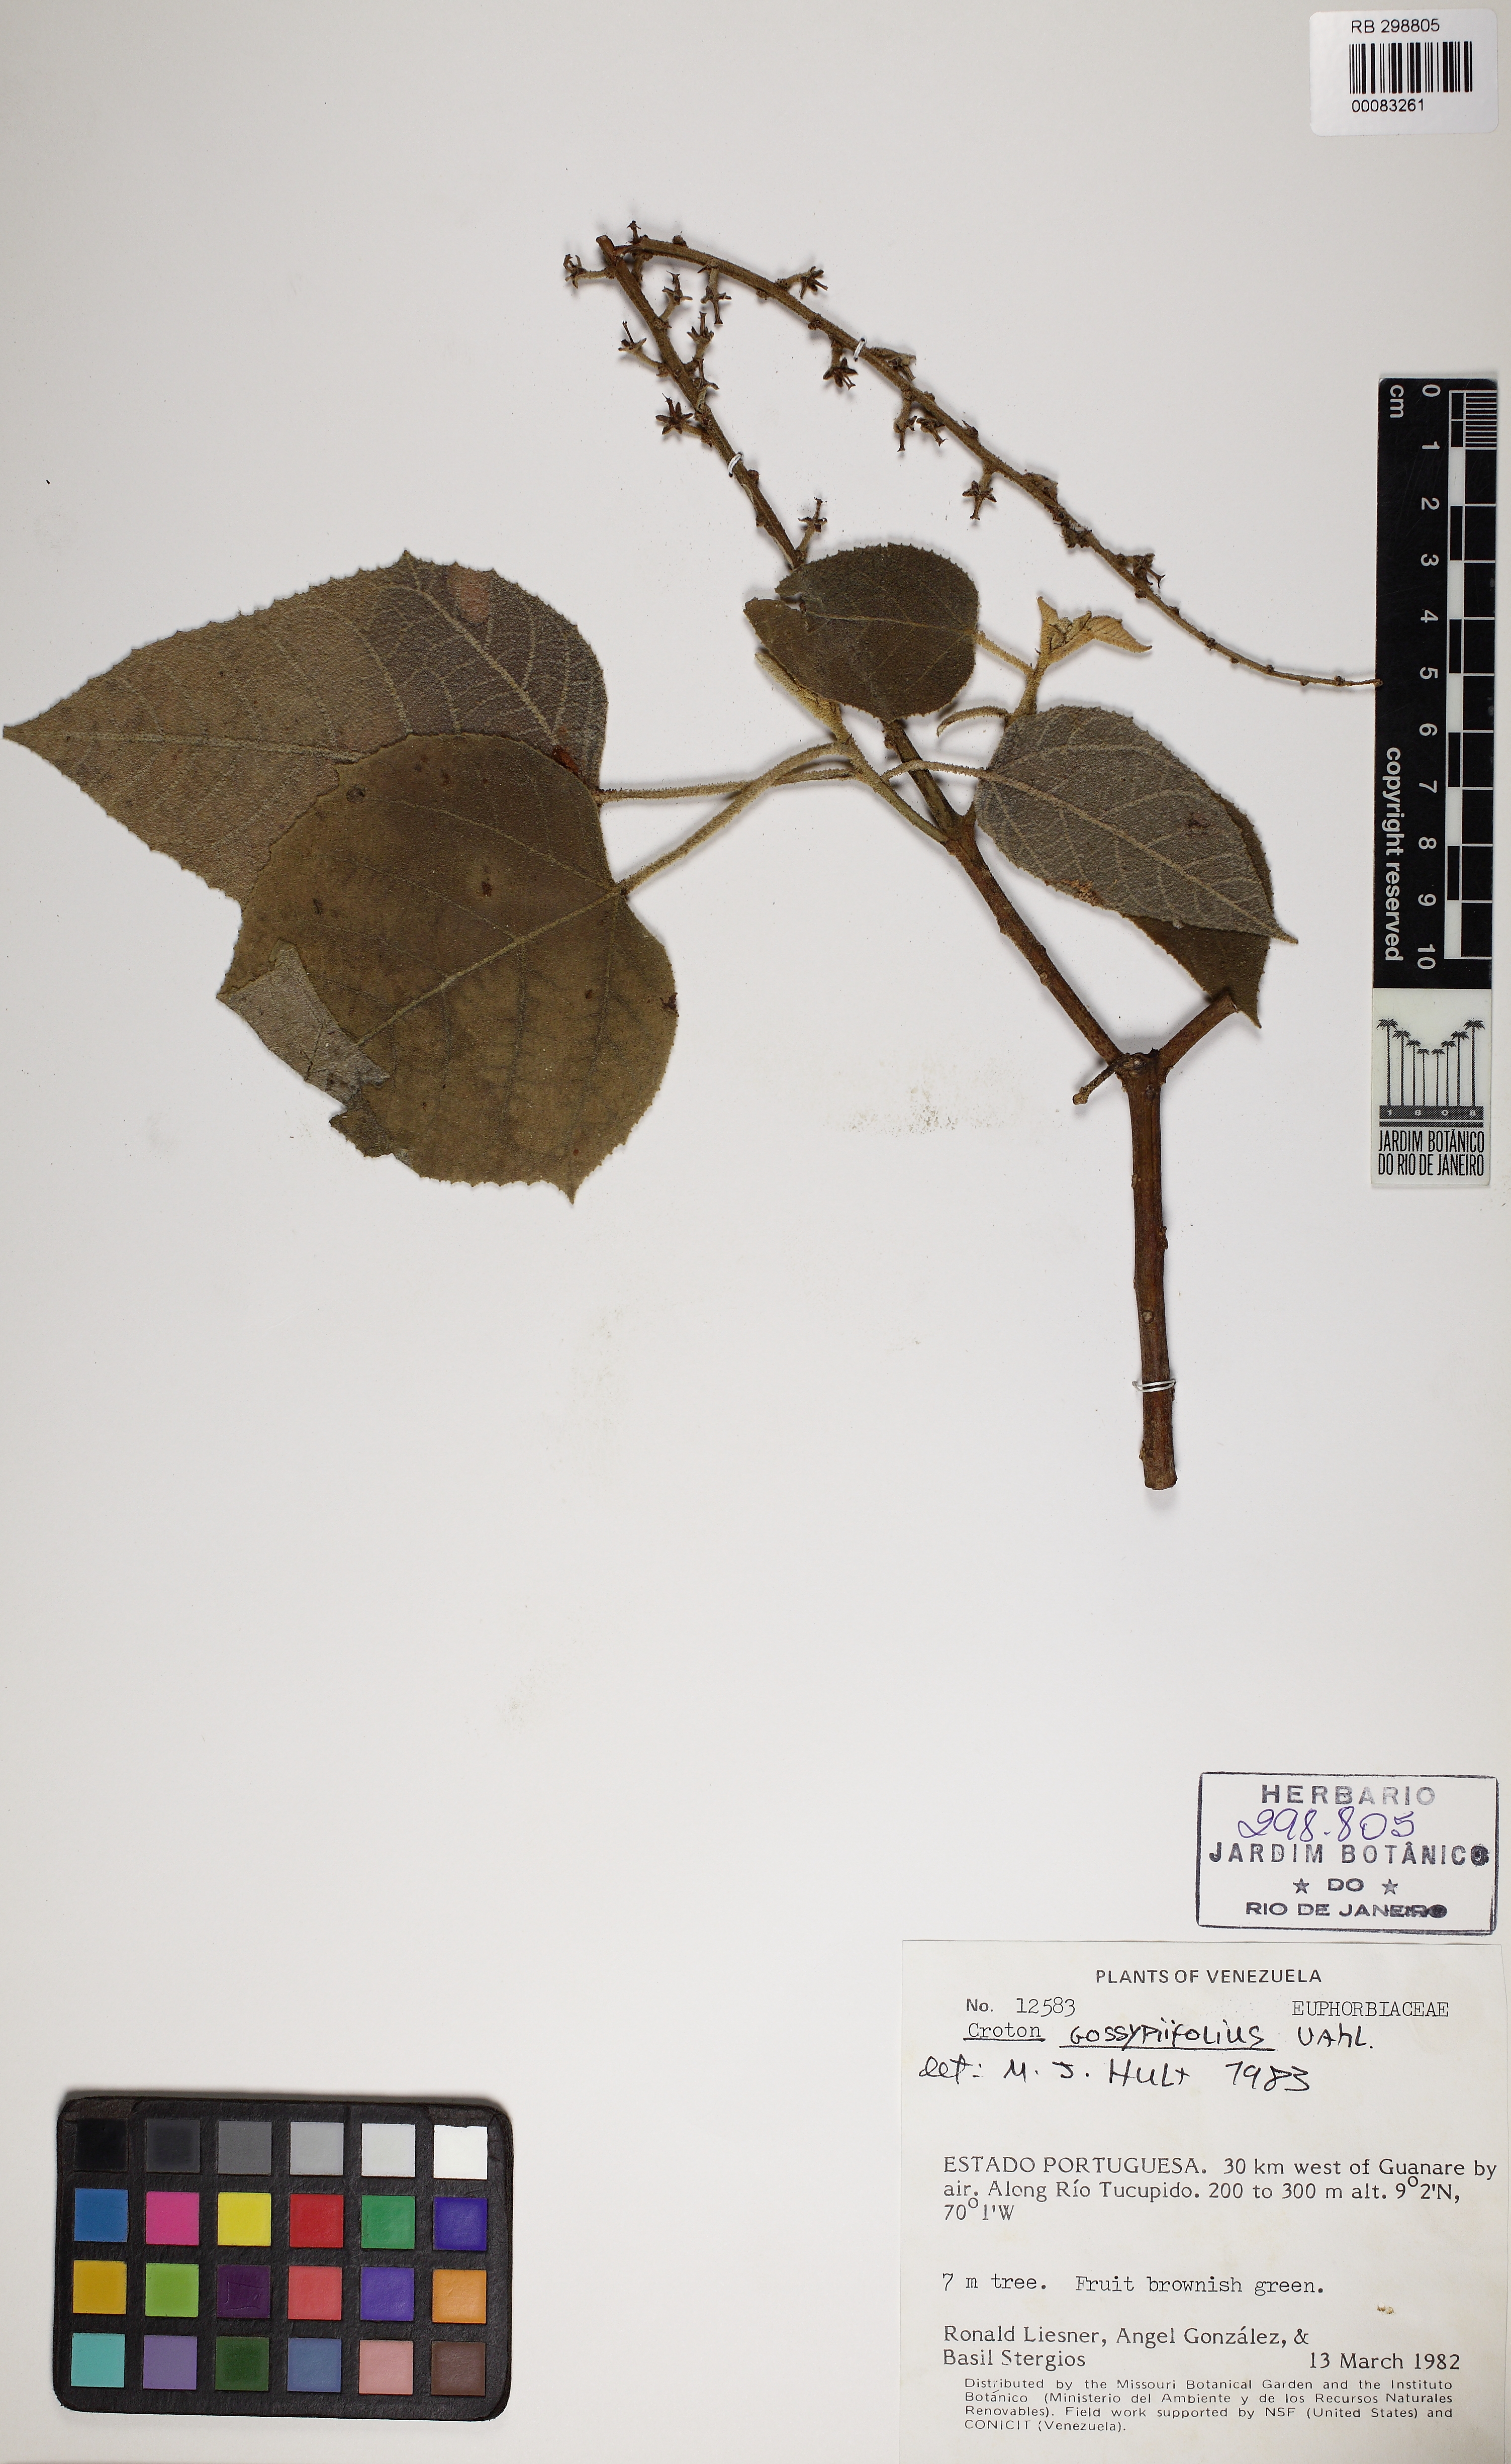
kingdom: Plantae
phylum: Tracheophyta
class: Magnoliopsida
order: Malpighiales
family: Euphorbiaceae
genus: Croton
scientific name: Croton goyazensis
